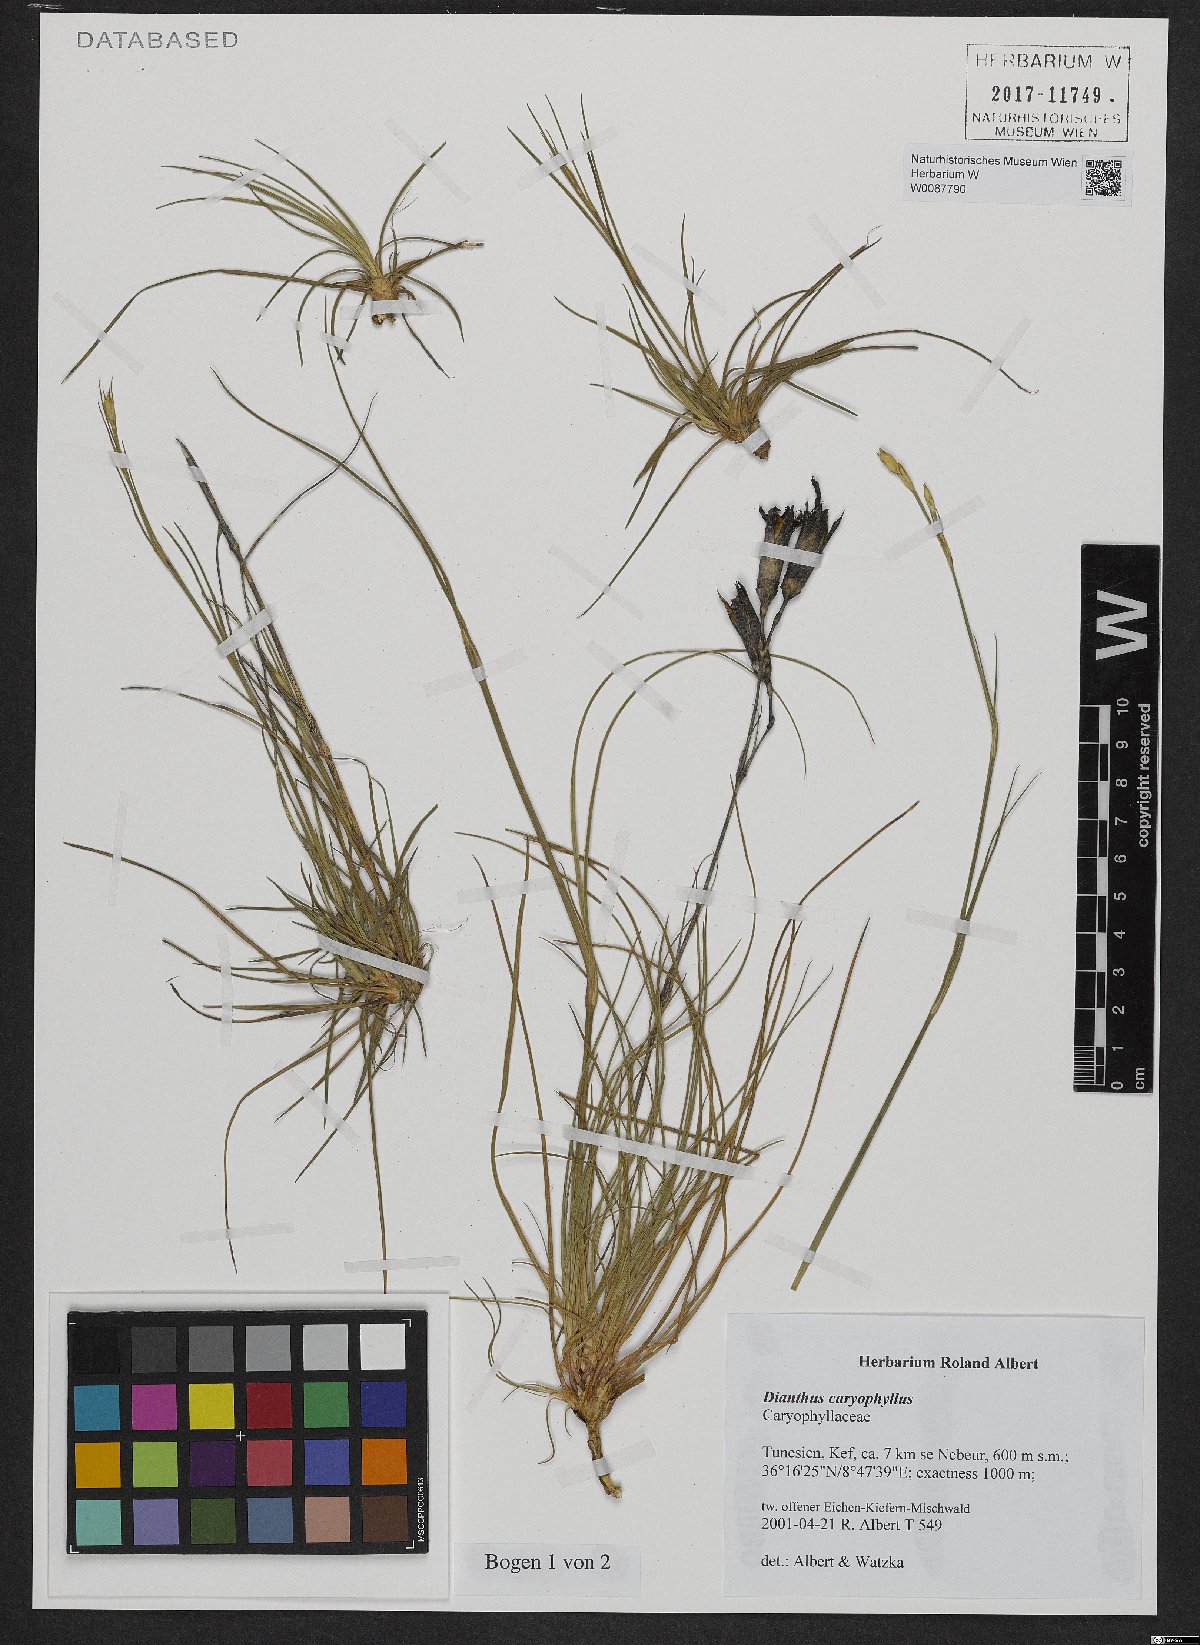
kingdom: Plantae
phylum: Tracheophyta
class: Magnoliopsida
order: Caryophyllales
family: Caryophyllaceae
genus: Dianthus
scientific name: Dianthus caryophyllus
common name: Clove pink
